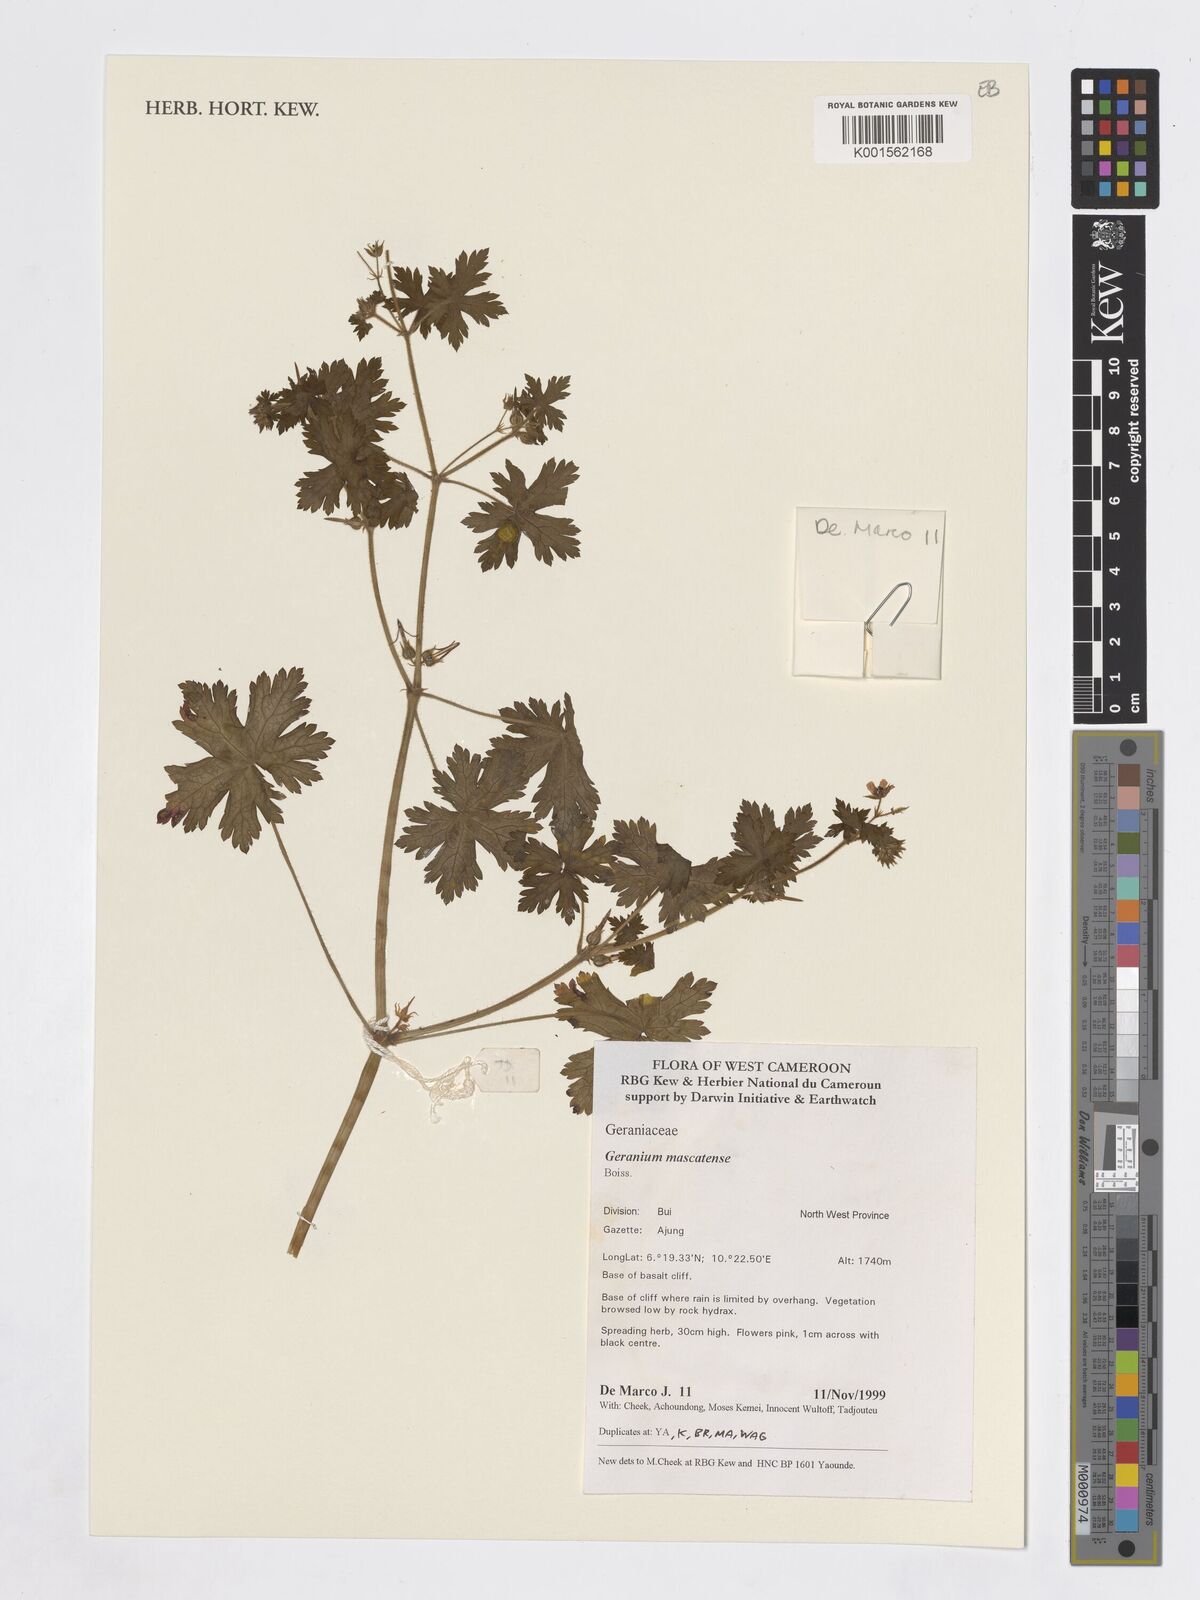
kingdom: Plantae
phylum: Tracheophyta
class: Magnoliopsida
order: Geraniales
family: Geraniaceae
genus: Geranium
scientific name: Geranium mascatense
